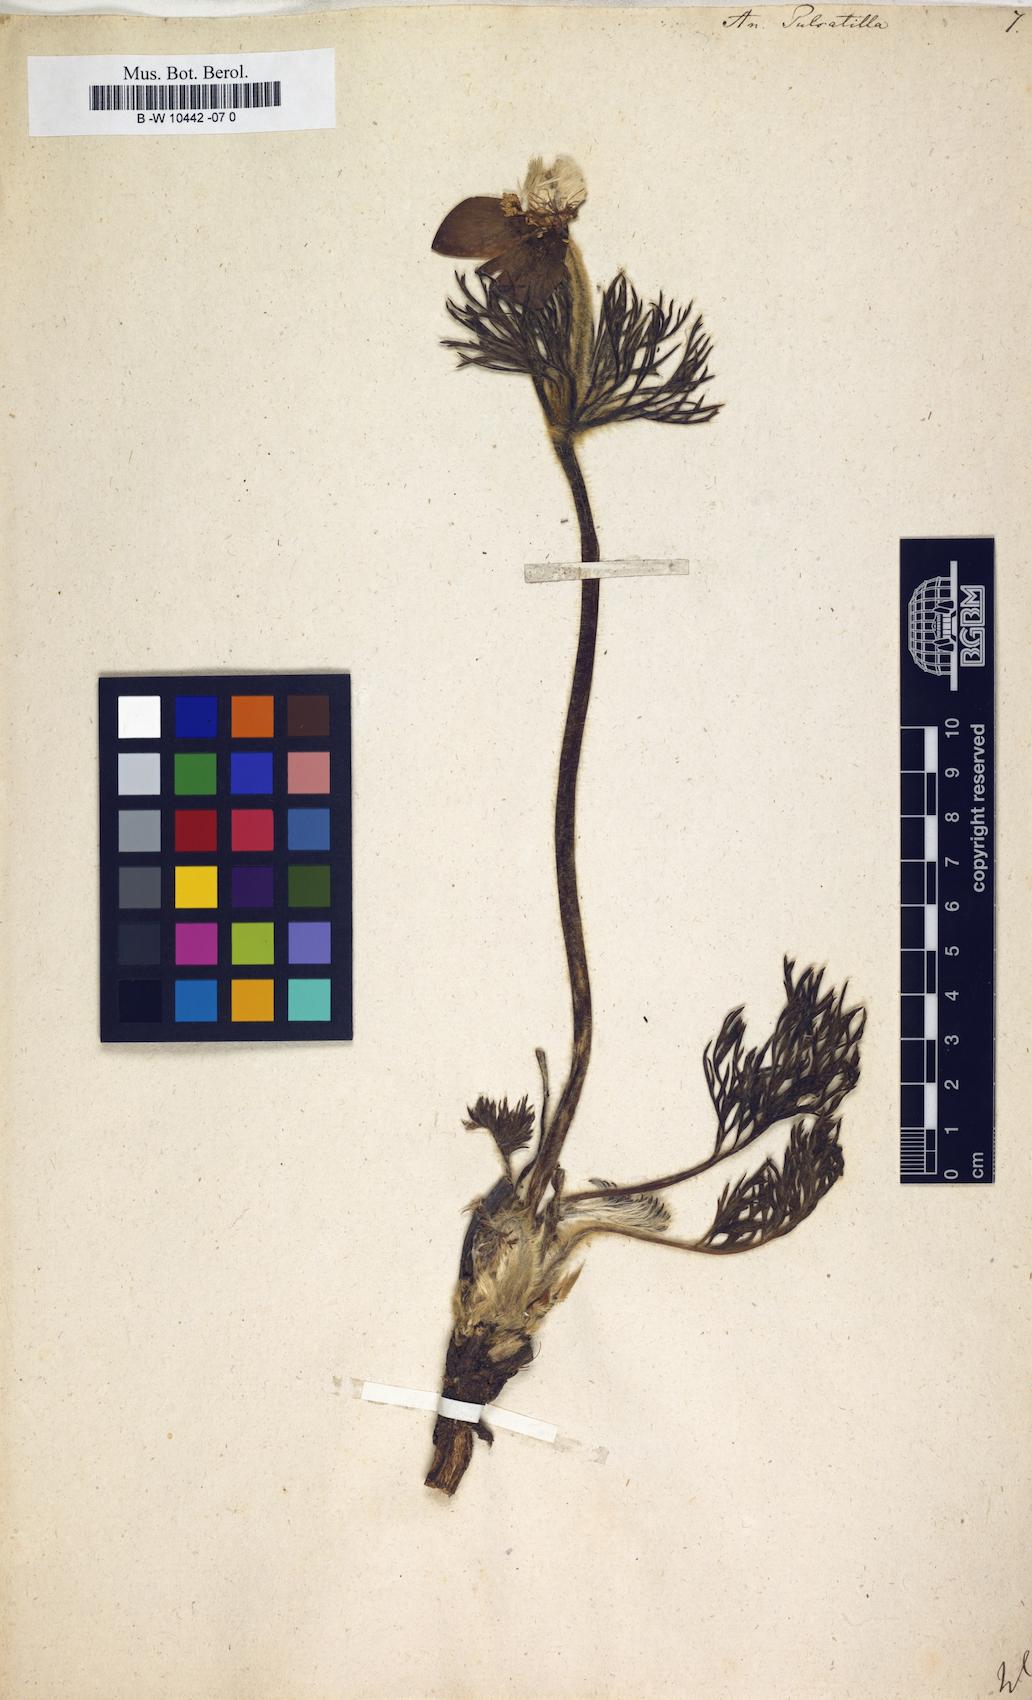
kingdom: Plantae
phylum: Tracheophyta
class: Magnoliopsida
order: Ranunculales
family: Ranunculaceae
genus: Pulsatilla
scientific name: Pulsatilla vulgaris
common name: Pasqueflower
